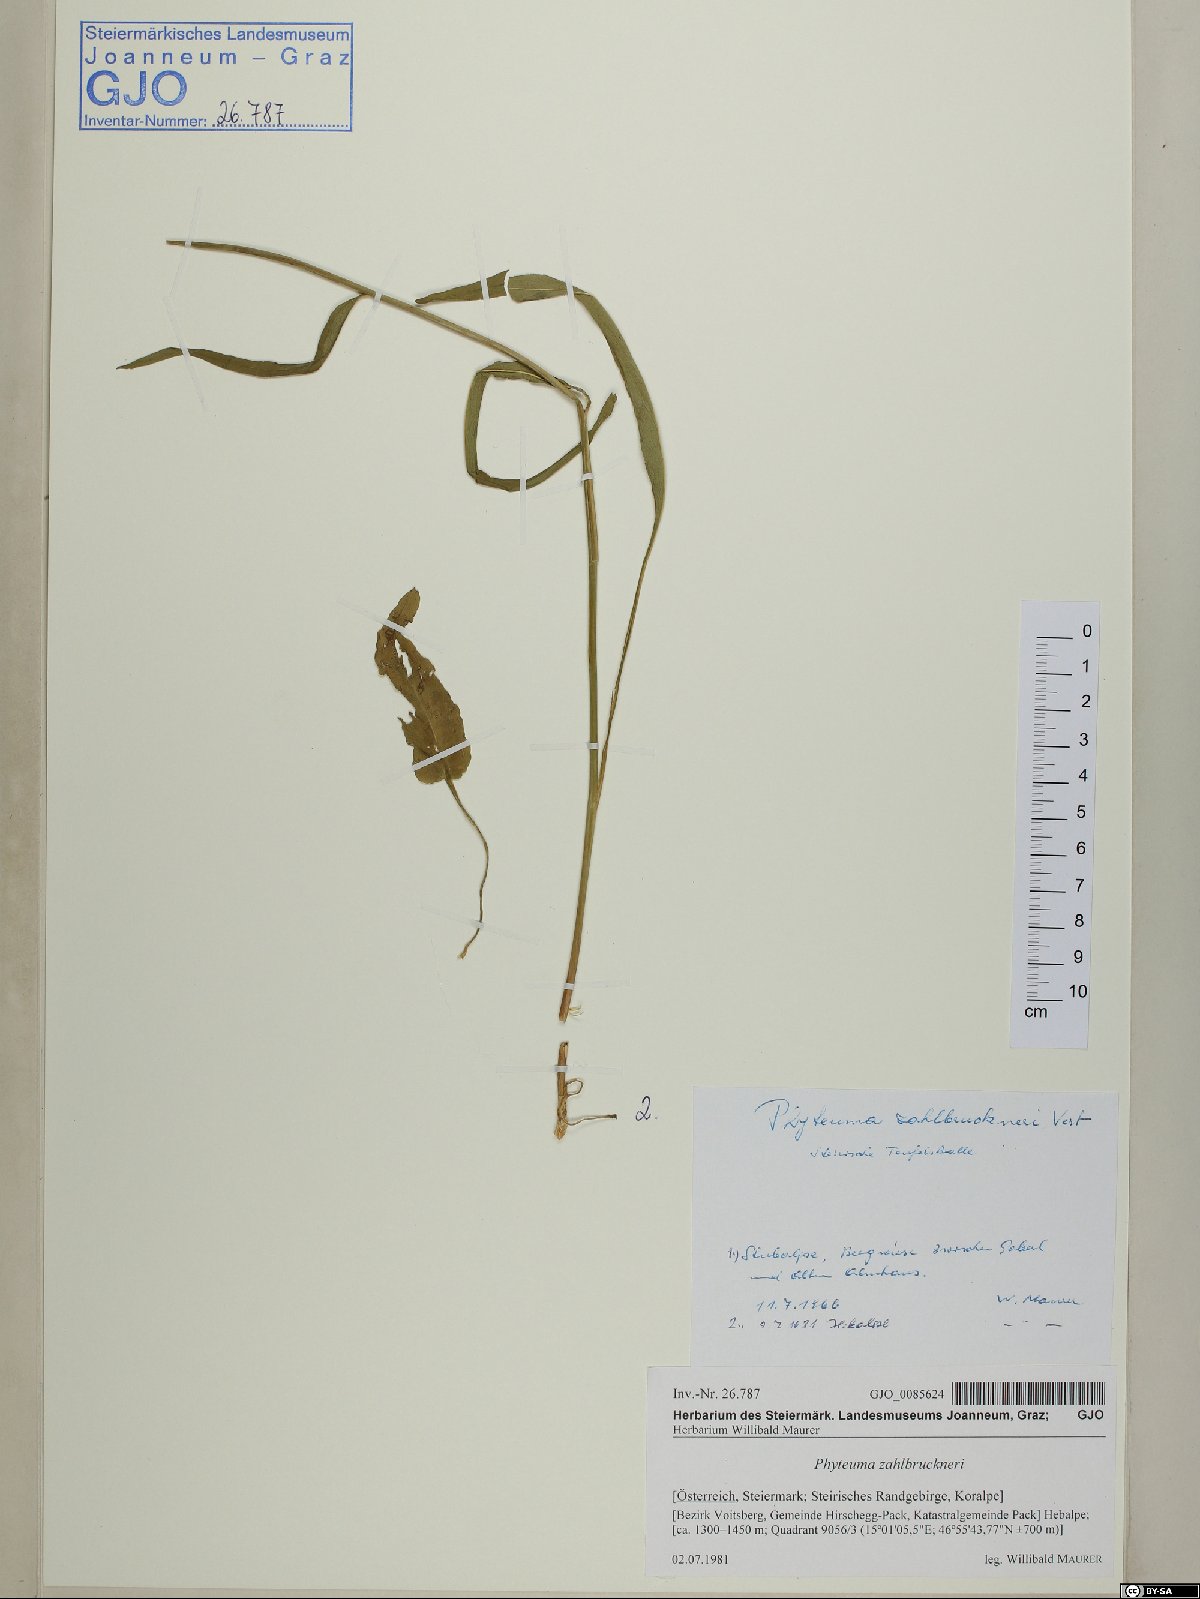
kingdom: Plantae
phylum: Tracheophyta
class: Magnoliopsida
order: Asterales
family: Campanulaceae
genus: Phyteuma
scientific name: Phyteuma persicifolium
